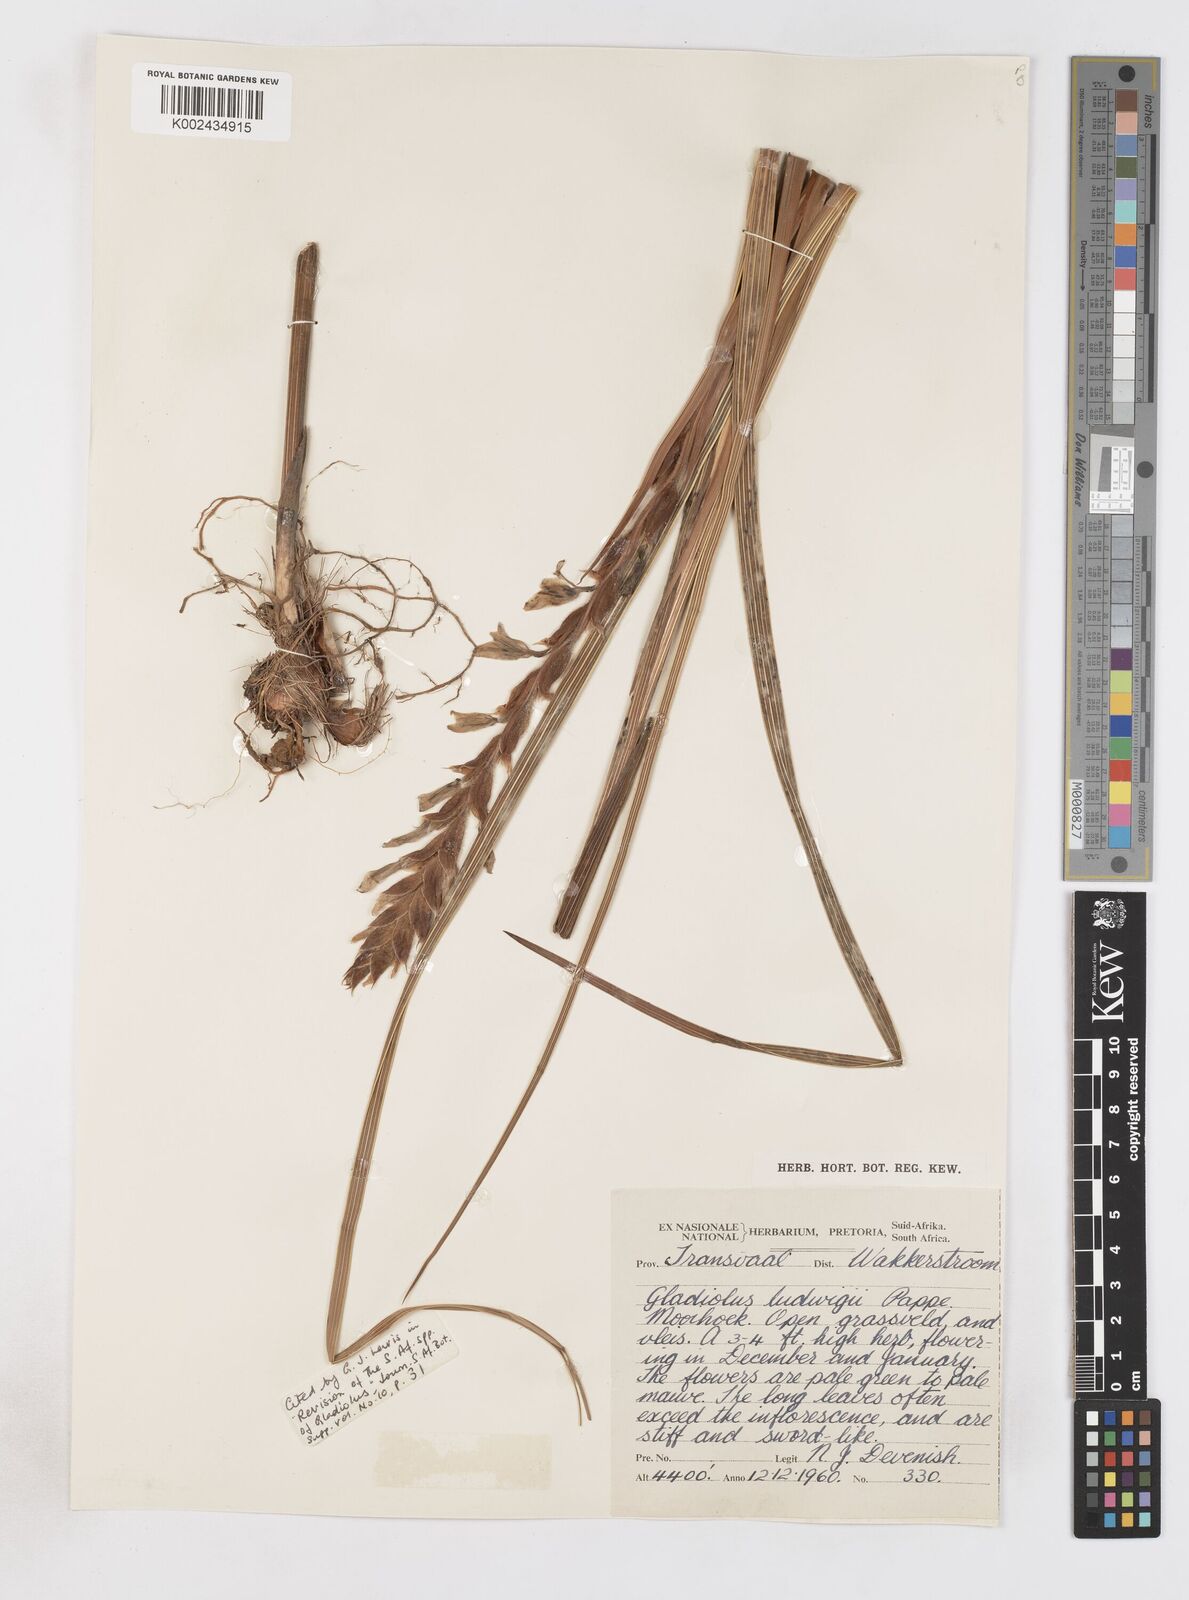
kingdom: Plantae
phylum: Tracheophyta
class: Liliopsida
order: Asparagales
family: Iridaceae
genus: Gladiolus
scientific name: Gladiolus sericeovillosus
